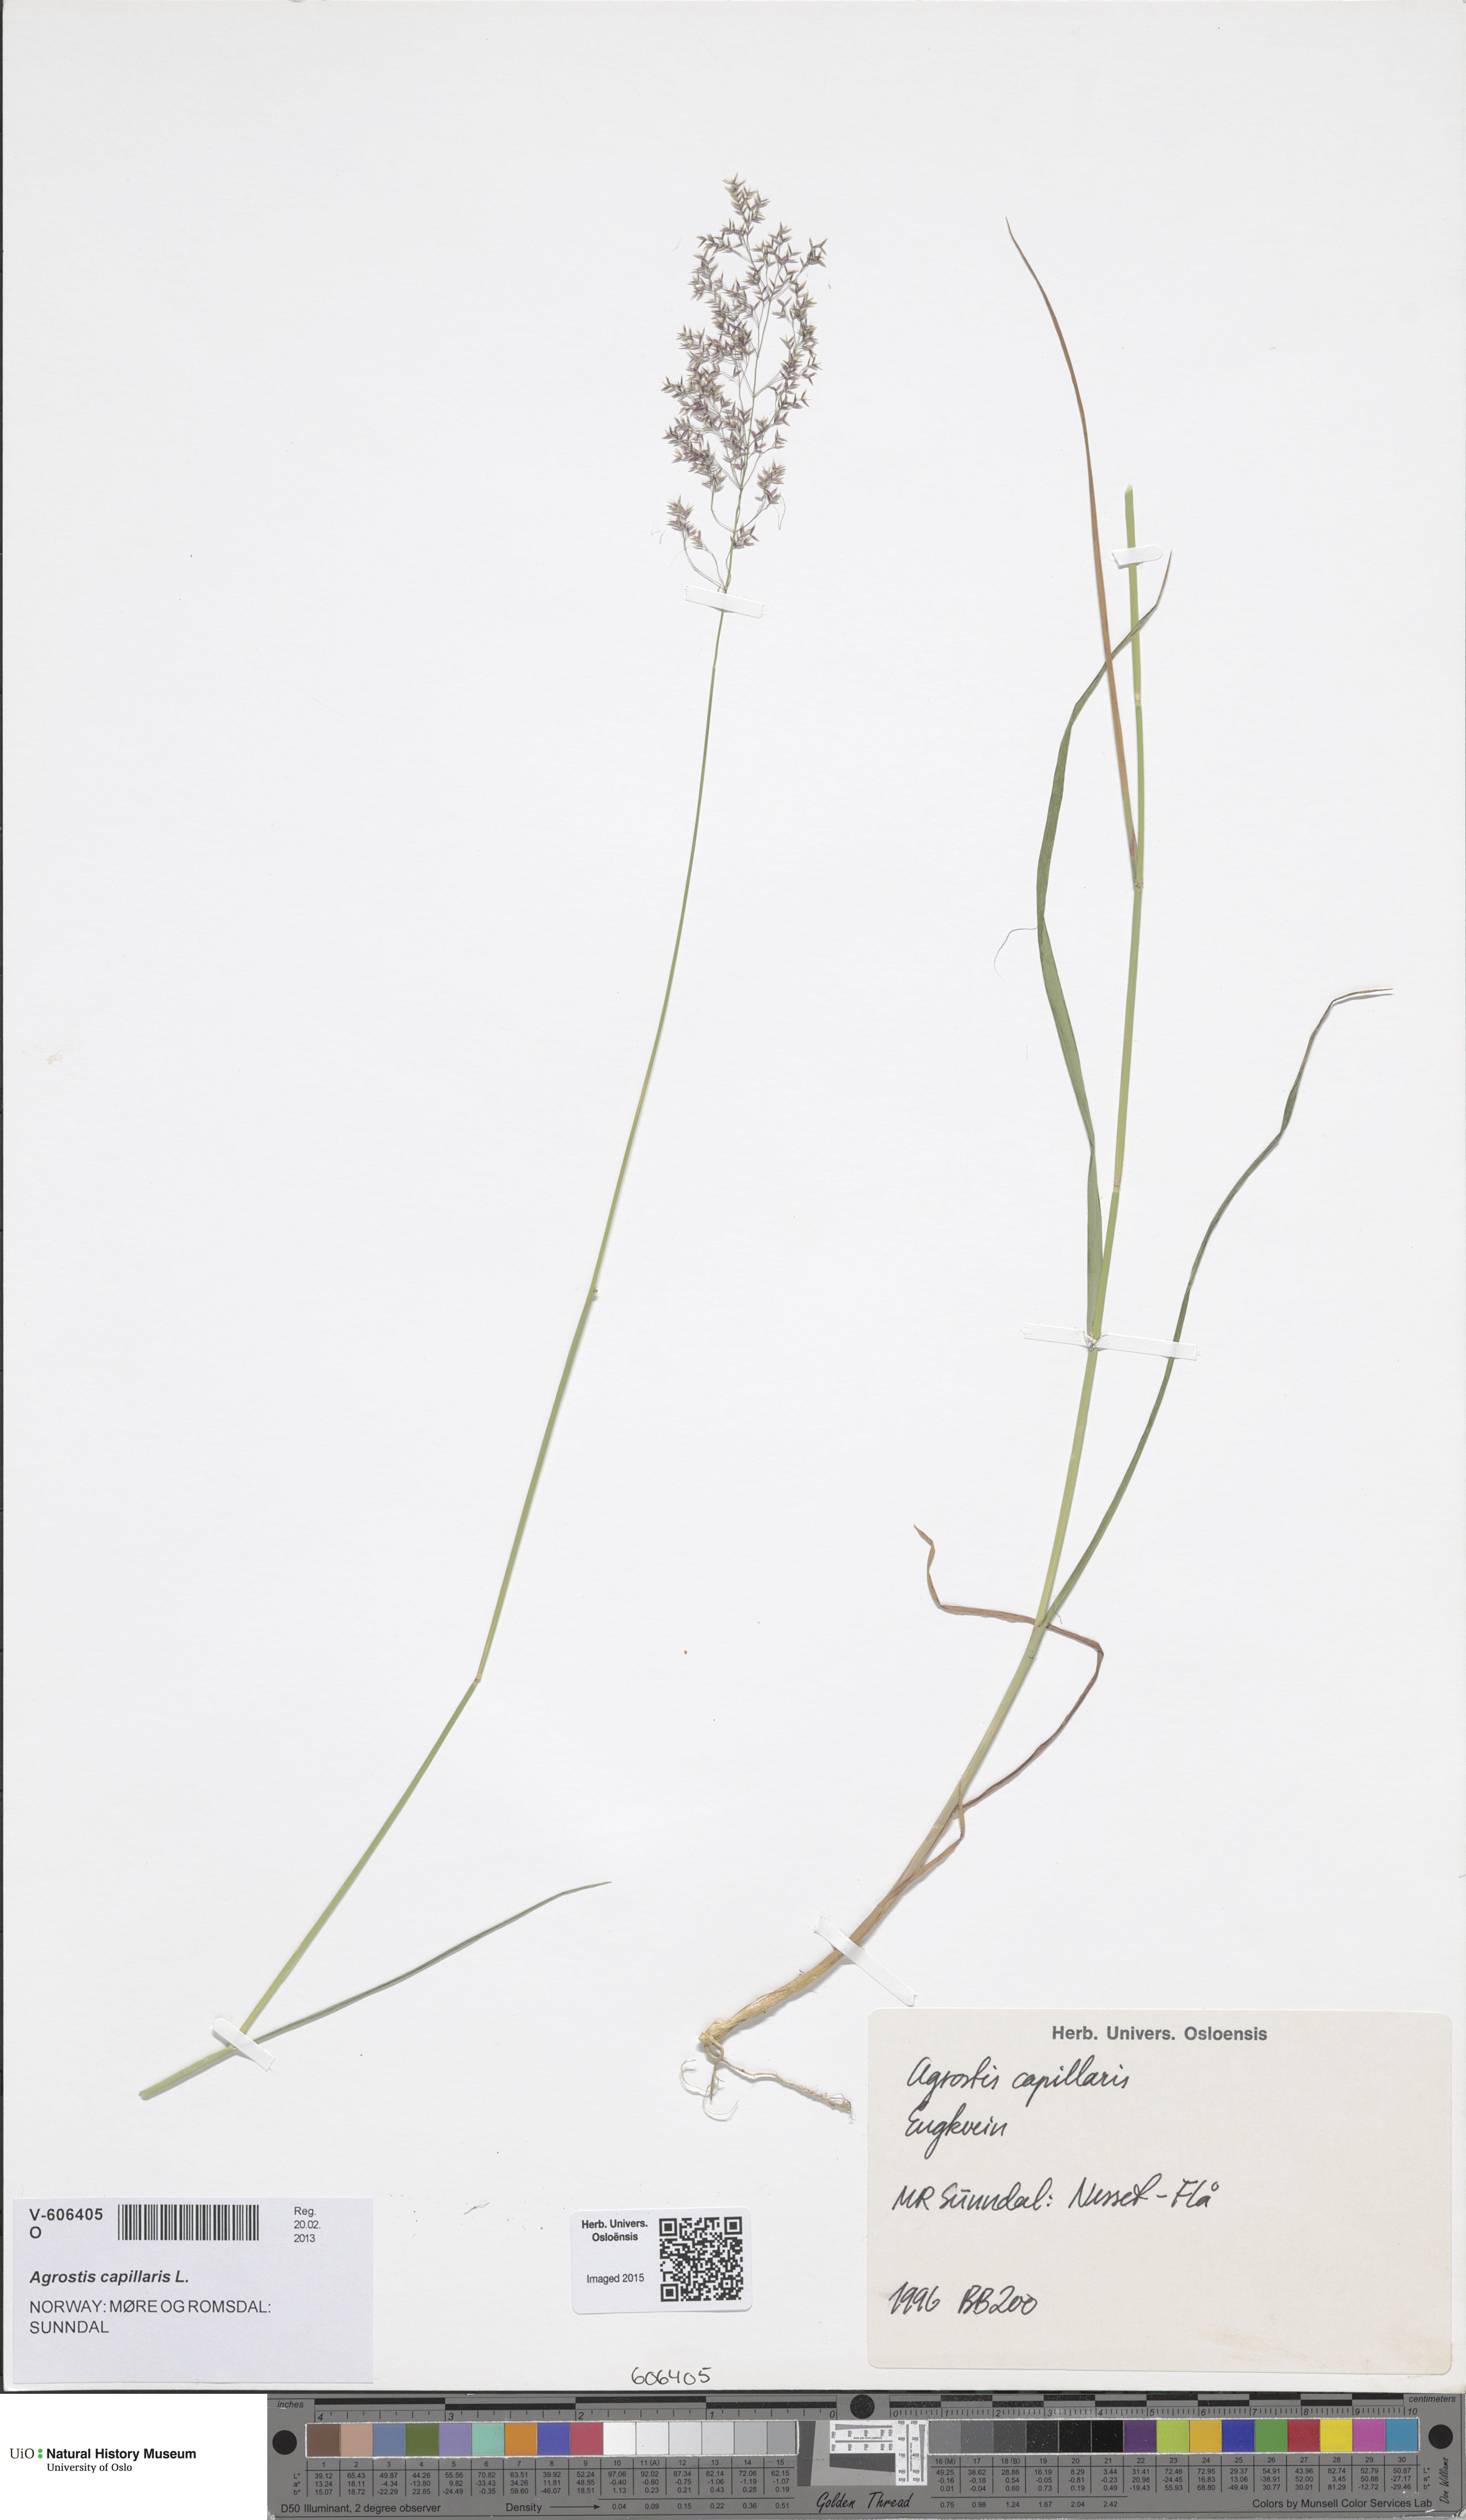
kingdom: Plantae
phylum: Tracheophyta
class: Liliopsida
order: Poales
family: Poaceae
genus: Agrostis
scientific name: Agrostis capillaris
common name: Colonial bentgrass
